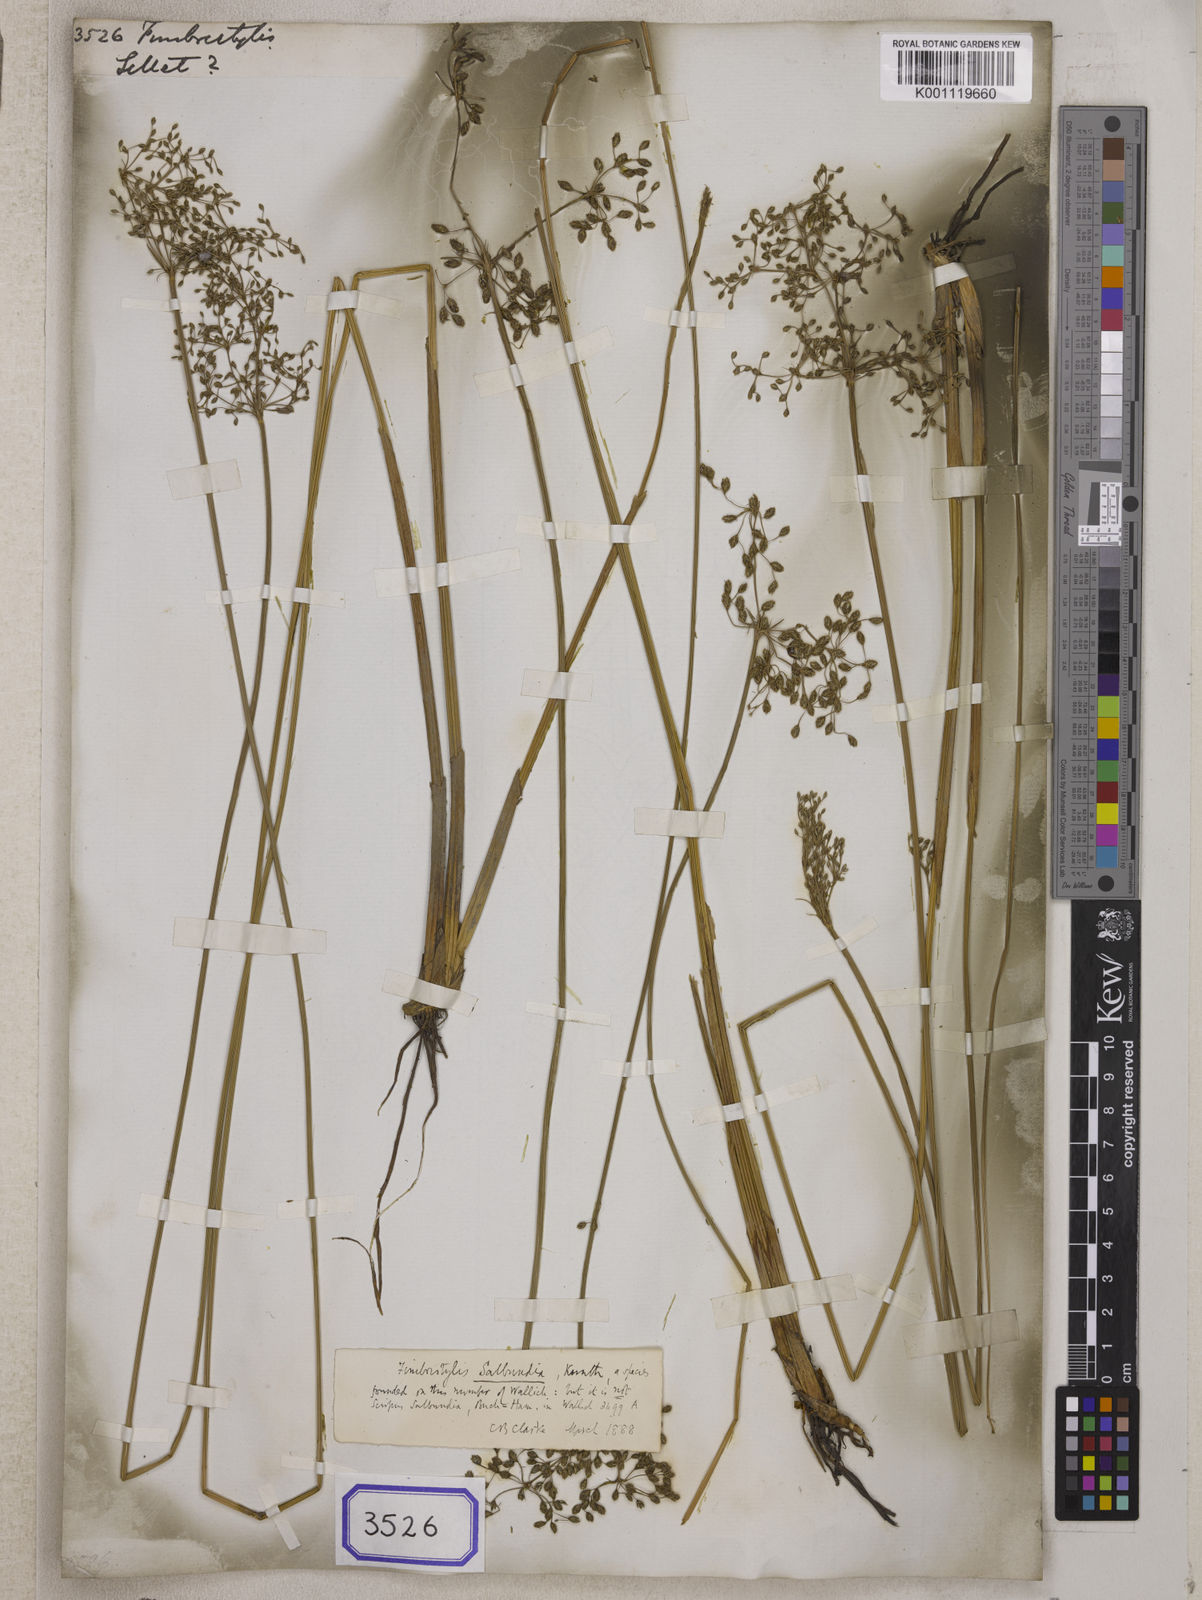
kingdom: Plantae
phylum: Tracheophyta
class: Liliopsida
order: Poales
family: Cyperaceae
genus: Fimbristylis
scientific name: Fimbristylis
